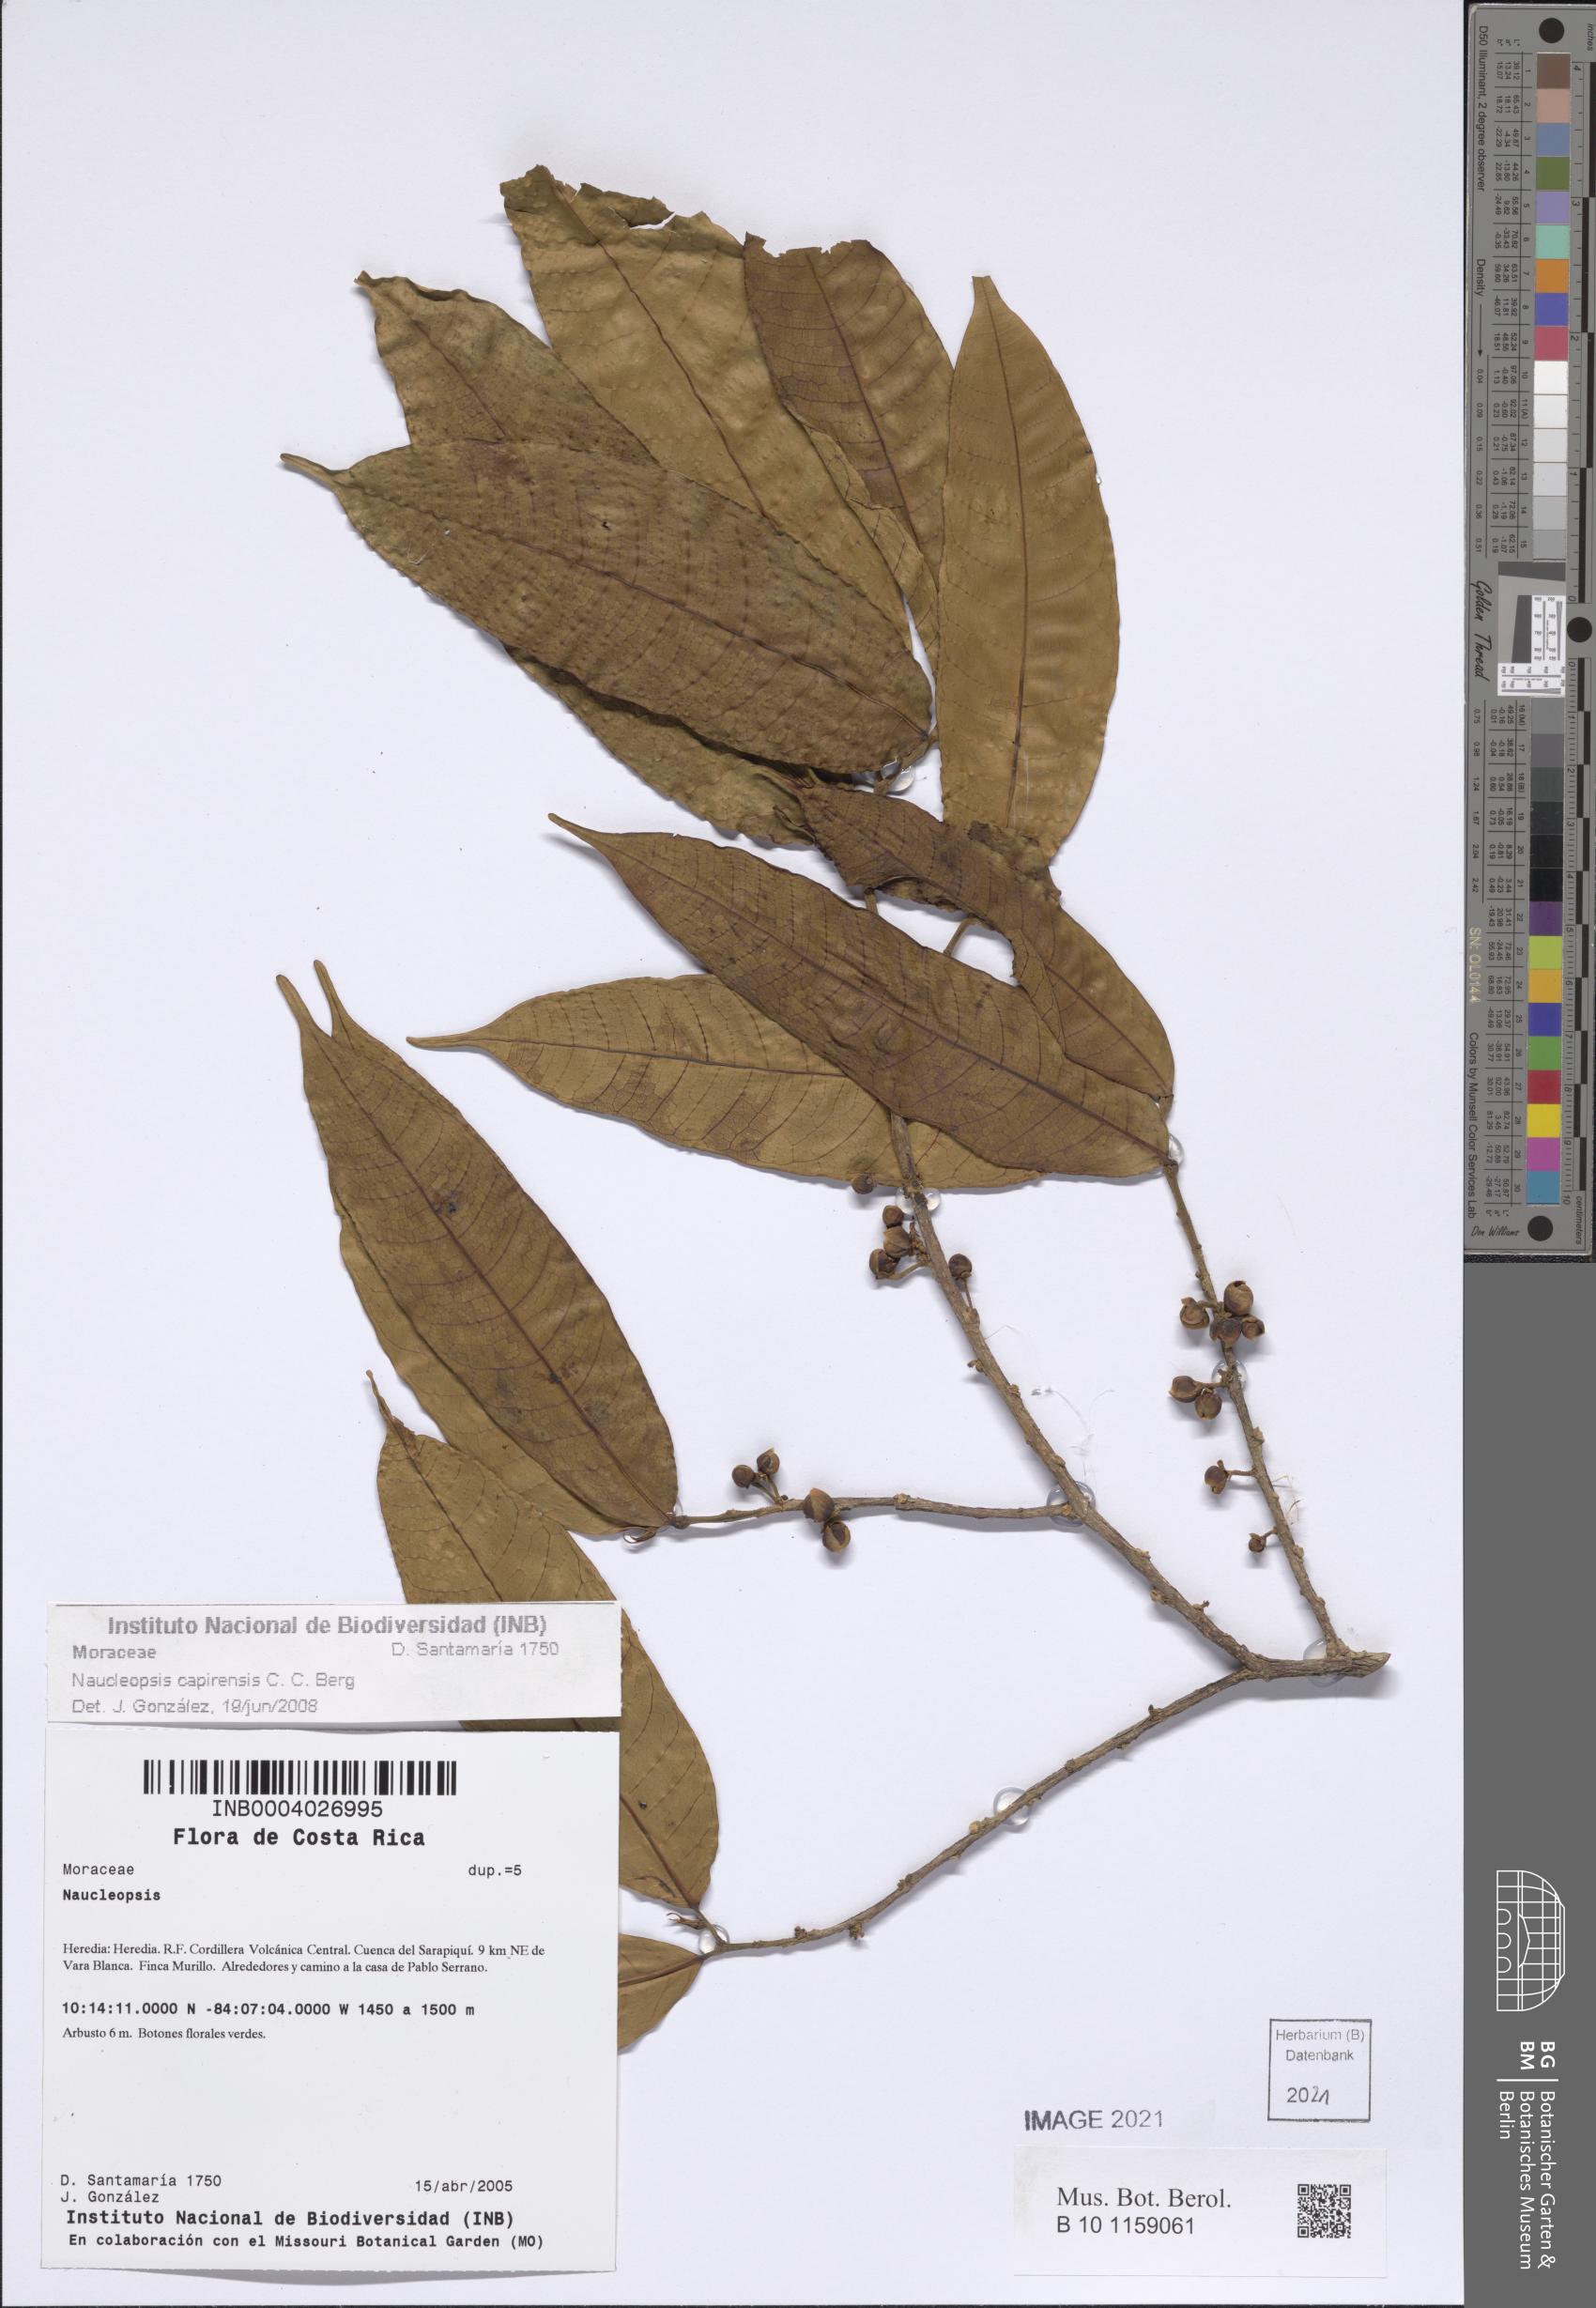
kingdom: Plantae
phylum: Tracheophyta
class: Magnoliopsida
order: Rosales
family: Moraceae
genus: Naucleopsis
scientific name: Naucleopsis capirensis
